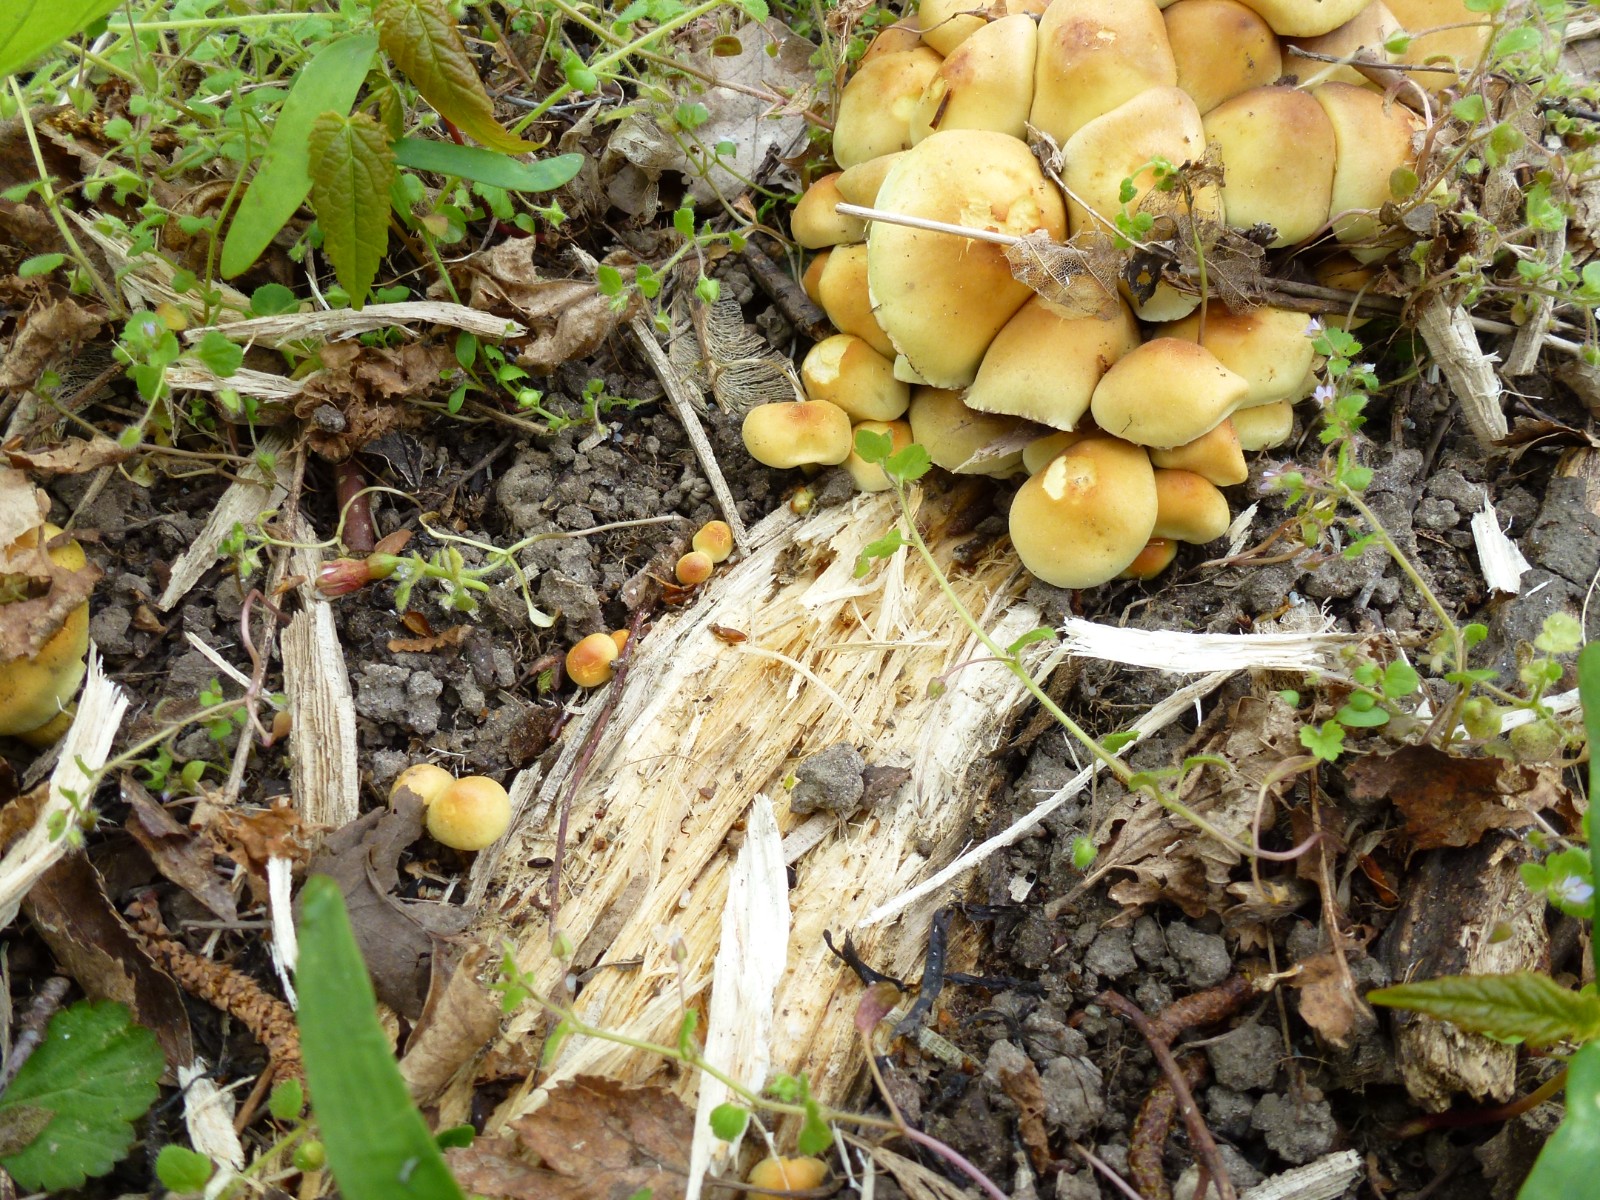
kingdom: Fungi
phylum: Basidiomycota
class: Agaricomycetes
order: Agaricales
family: Strophariaceae
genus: Hypholoma
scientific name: Hypholoma fasciculare
